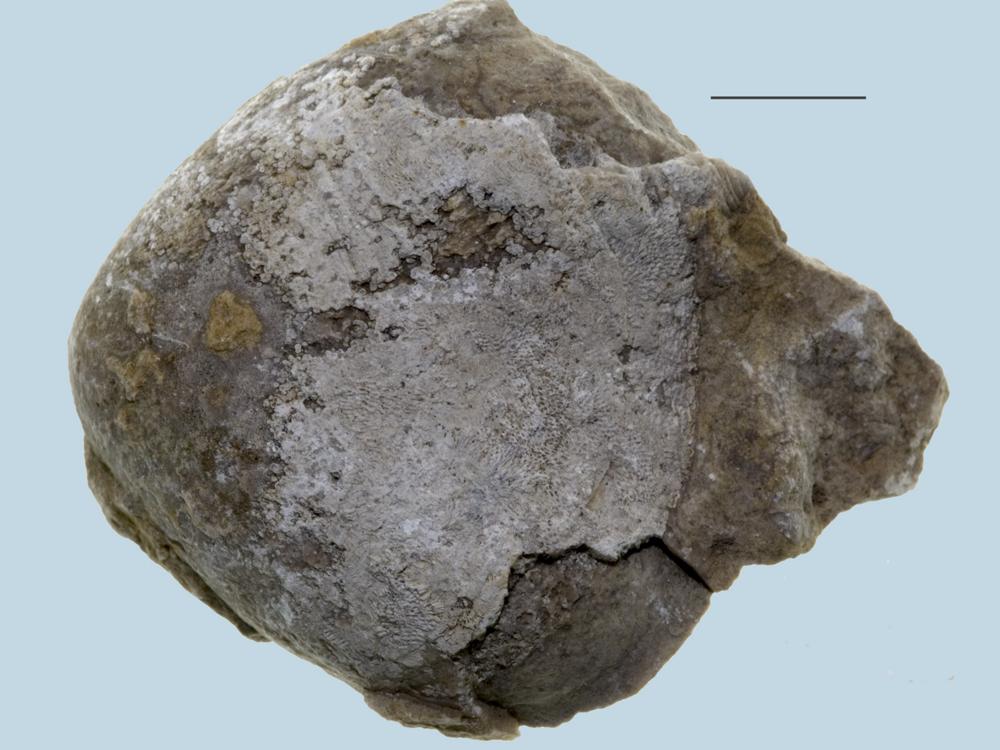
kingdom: Animalia
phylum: Brachiopoda
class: Rhynchonellata
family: Porambonitidae
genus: Porambonites
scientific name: Porambonites
